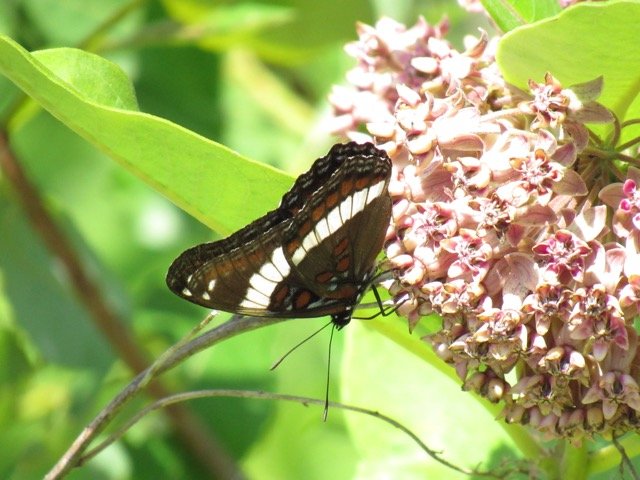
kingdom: Animalia
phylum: Arthropoda
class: Insecta
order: Lepidoptera
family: Nymphalidae
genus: Limenitis
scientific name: Limenitis arthemis
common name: Red-spotted Admiral
